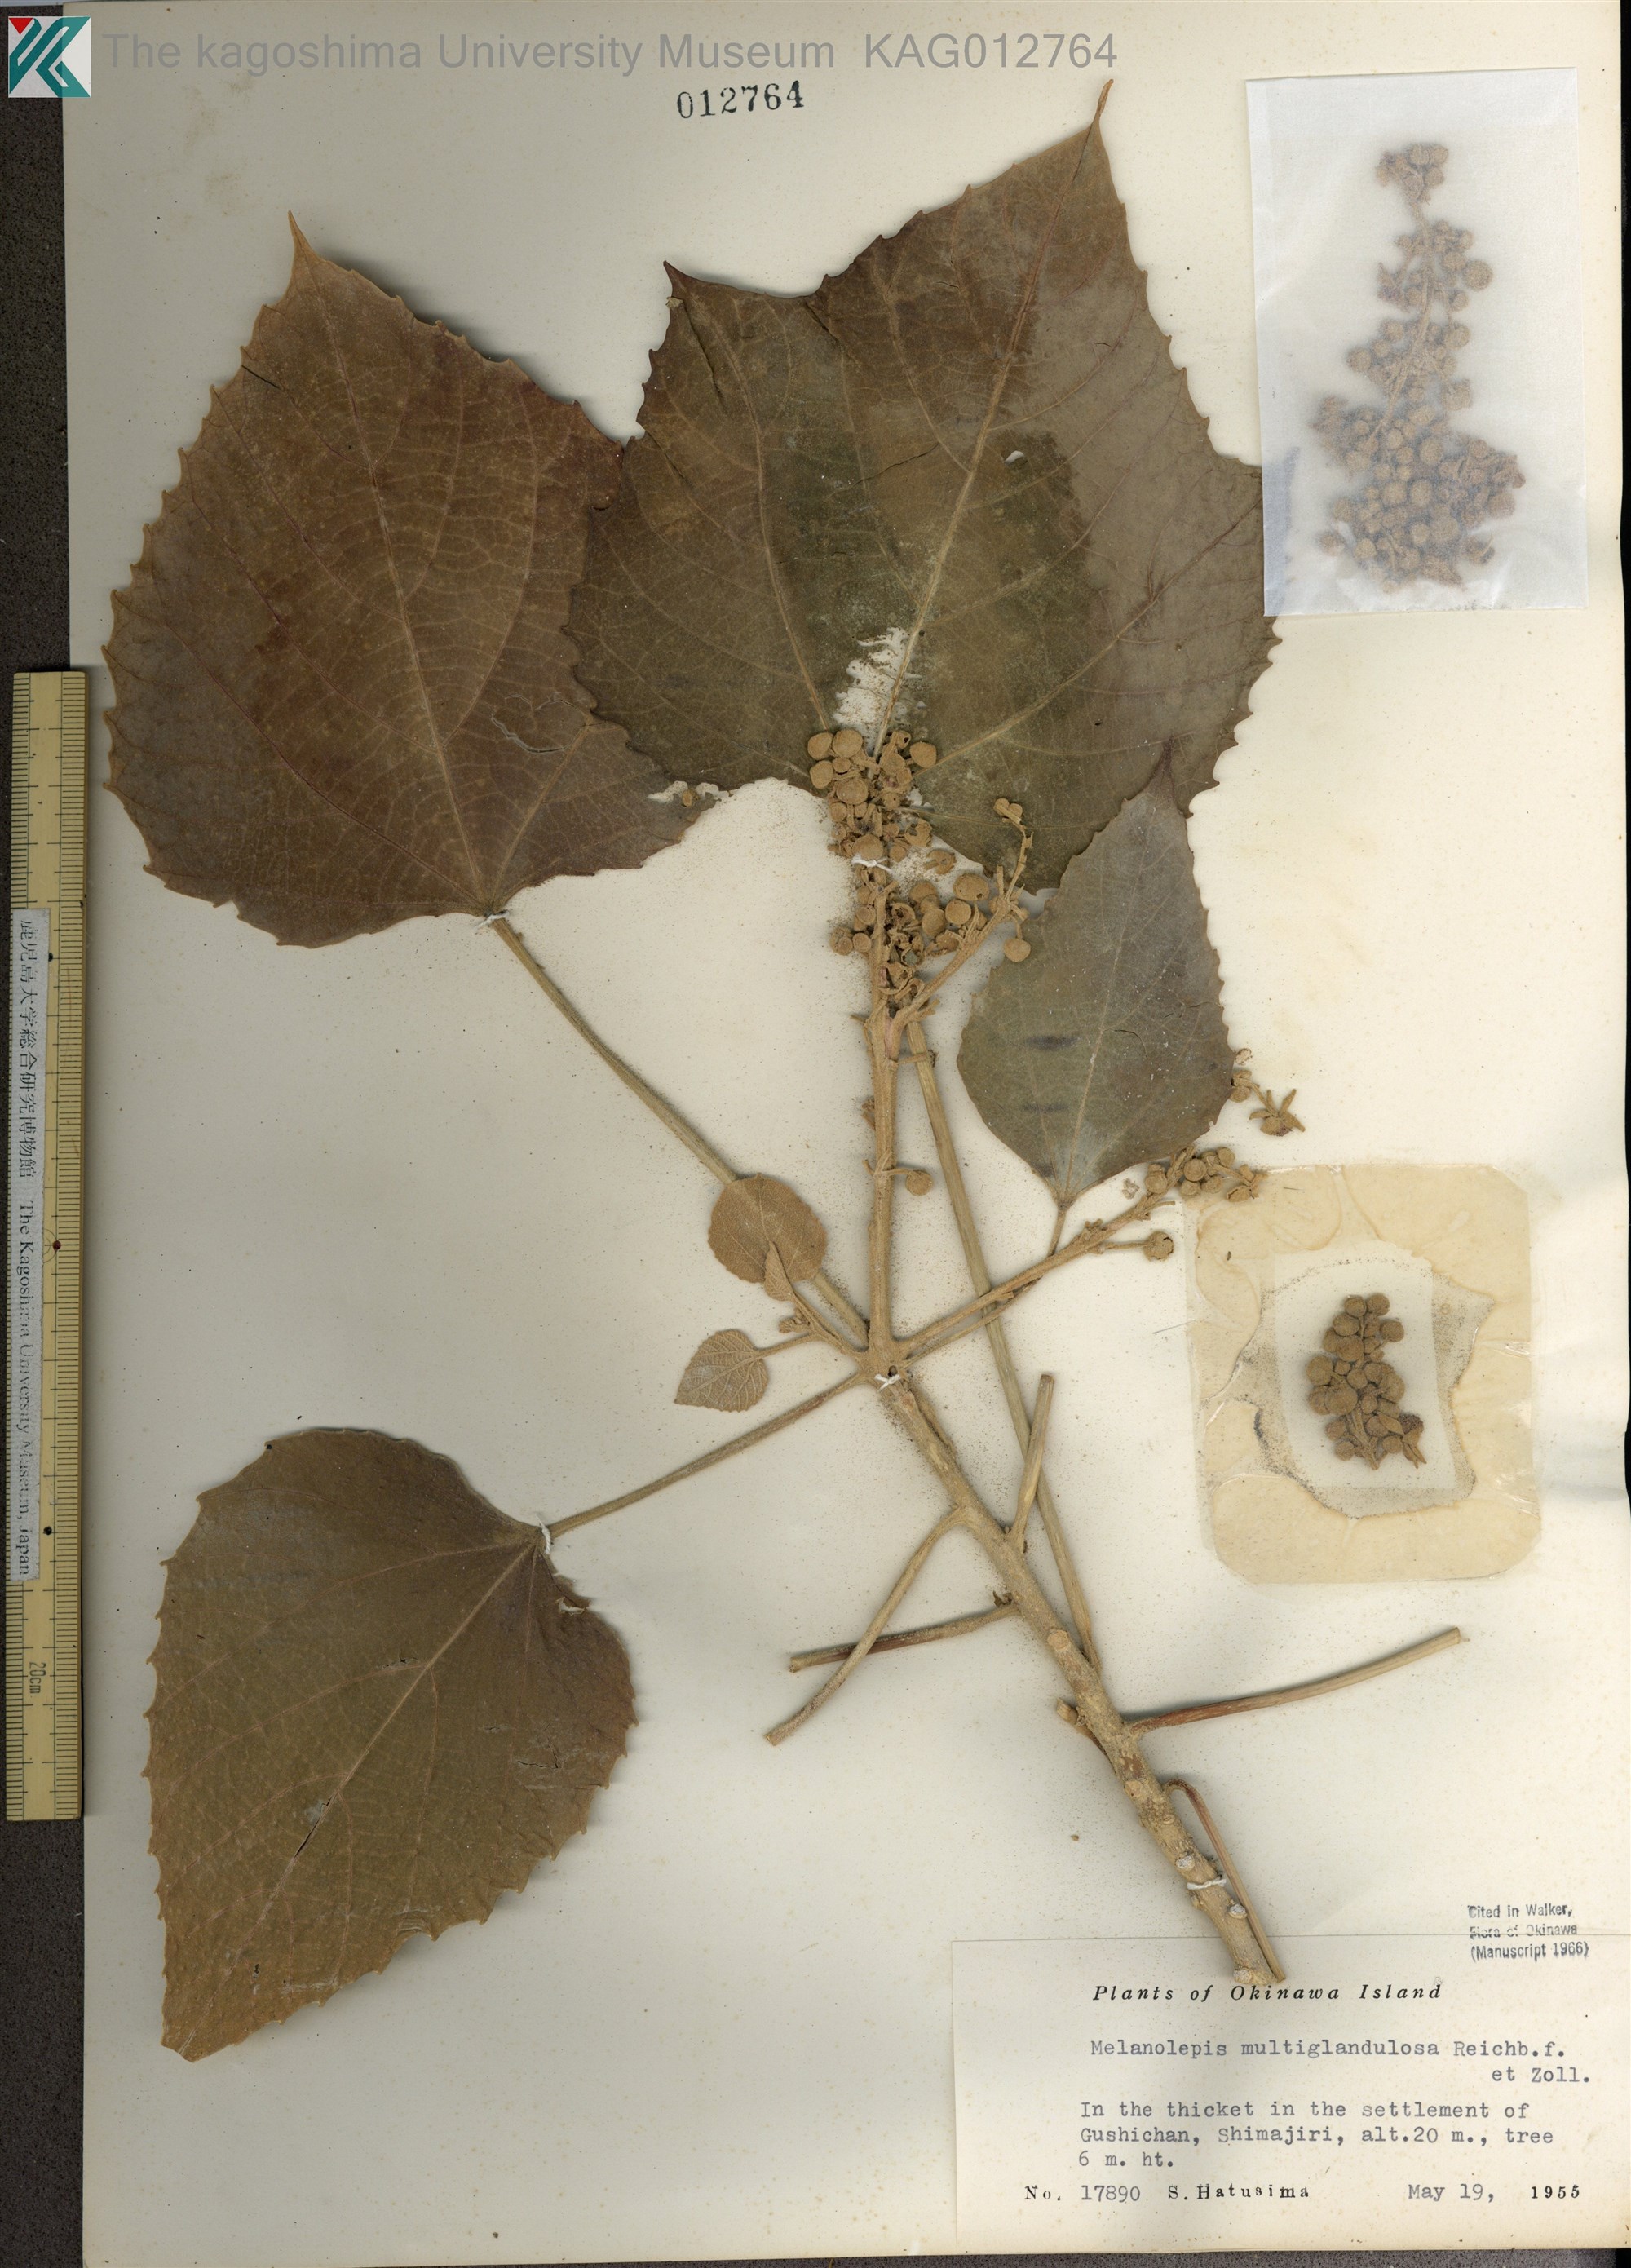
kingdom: Plantae
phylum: Tracheophyta
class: Magnoliopsida
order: Malpighiales
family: Euphorbiaceae
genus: Melanolepis
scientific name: Melanolepis multiglandulosa
